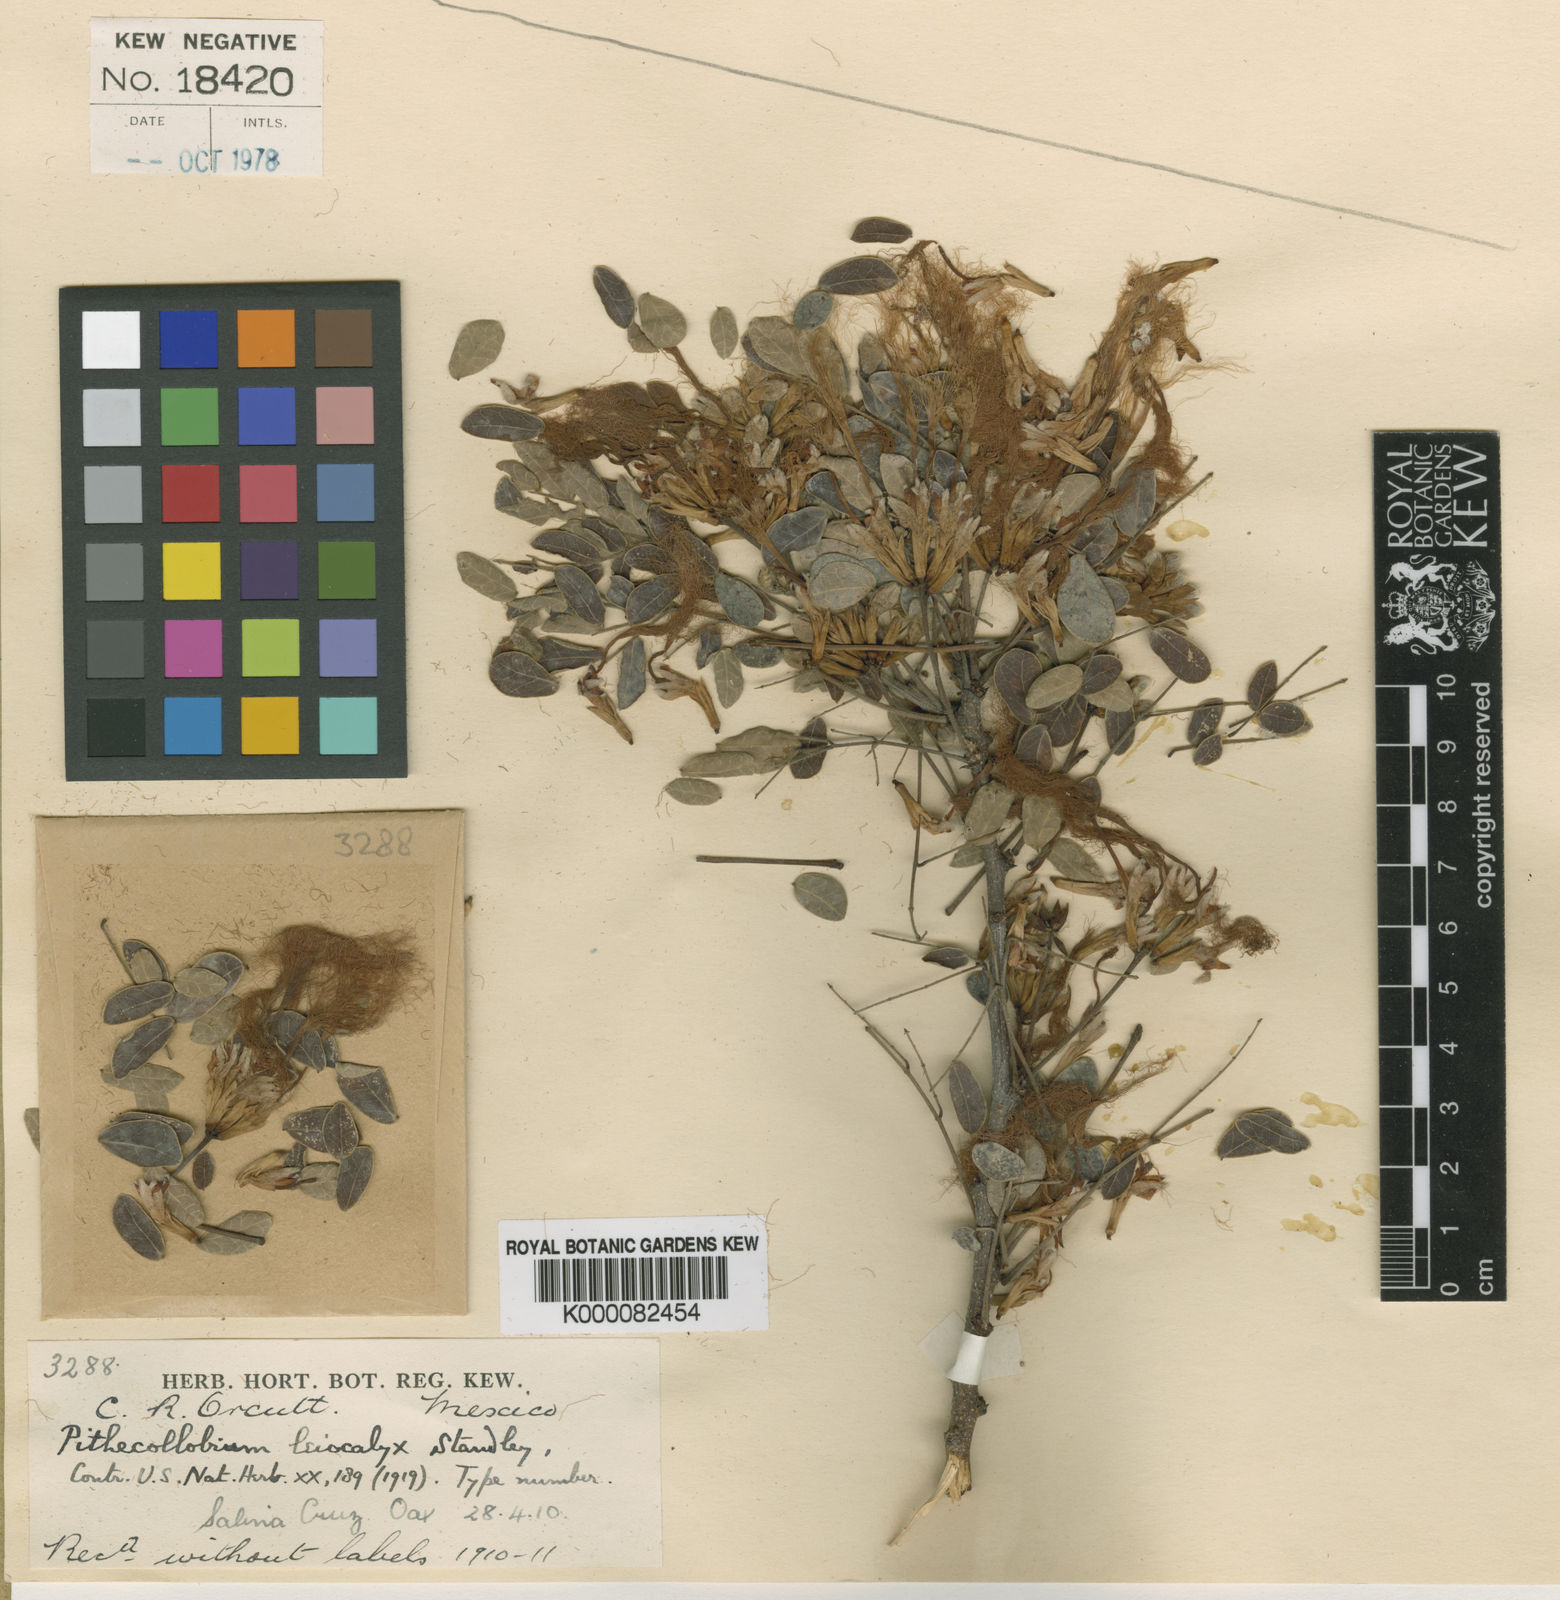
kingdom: Plantae
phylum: Tracheophyta
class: Magnoliopsida
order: Fabales
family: Fabaceae
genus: Havardia
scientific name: Havardia
